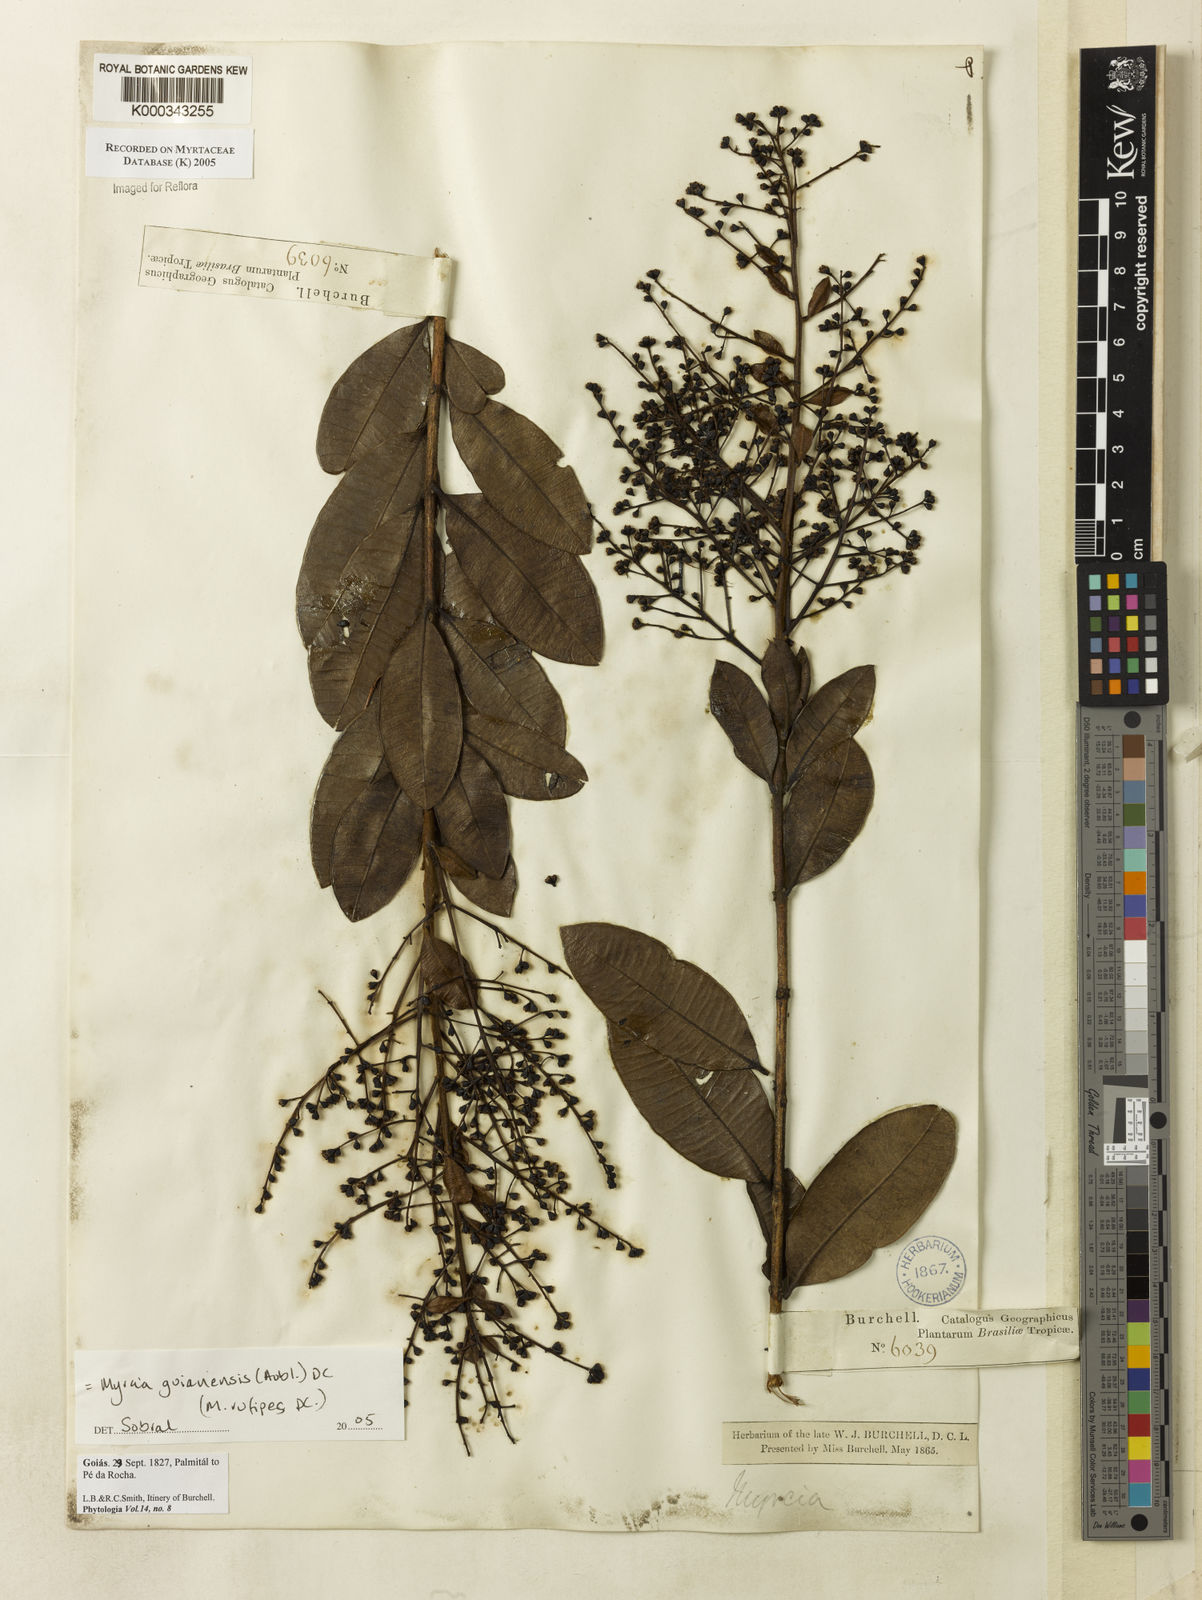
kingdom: Plantae
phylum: Tracheophyta
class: Magnoliopsida
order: Myrtales
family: Myrtaceae
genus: Myrcia
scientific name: Myrcia guianensis
